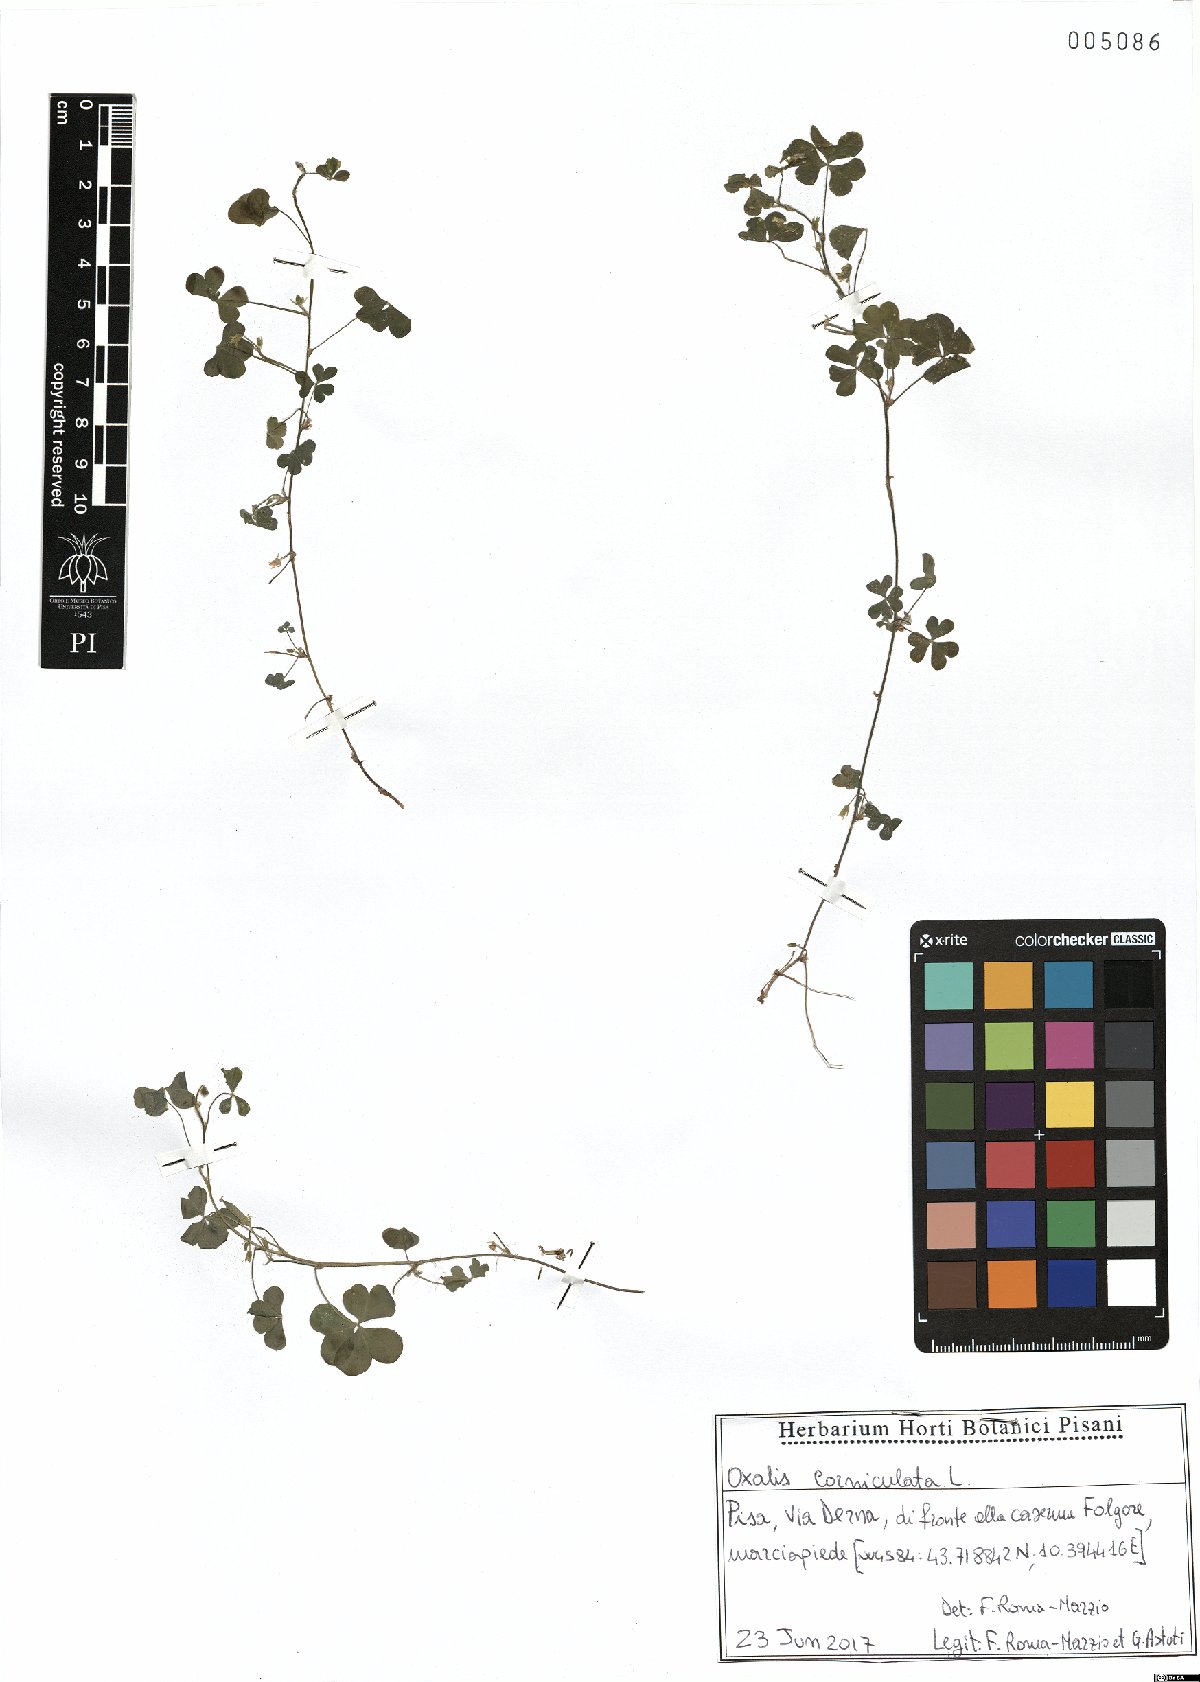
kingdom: Plantae
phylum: Tracheophyta
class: Magnoliopsida
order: Oxalidales
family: Oxalidaceae
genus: Oxalis
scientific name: Oxalis corniculata
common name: Procumbent yellow-sorrel
